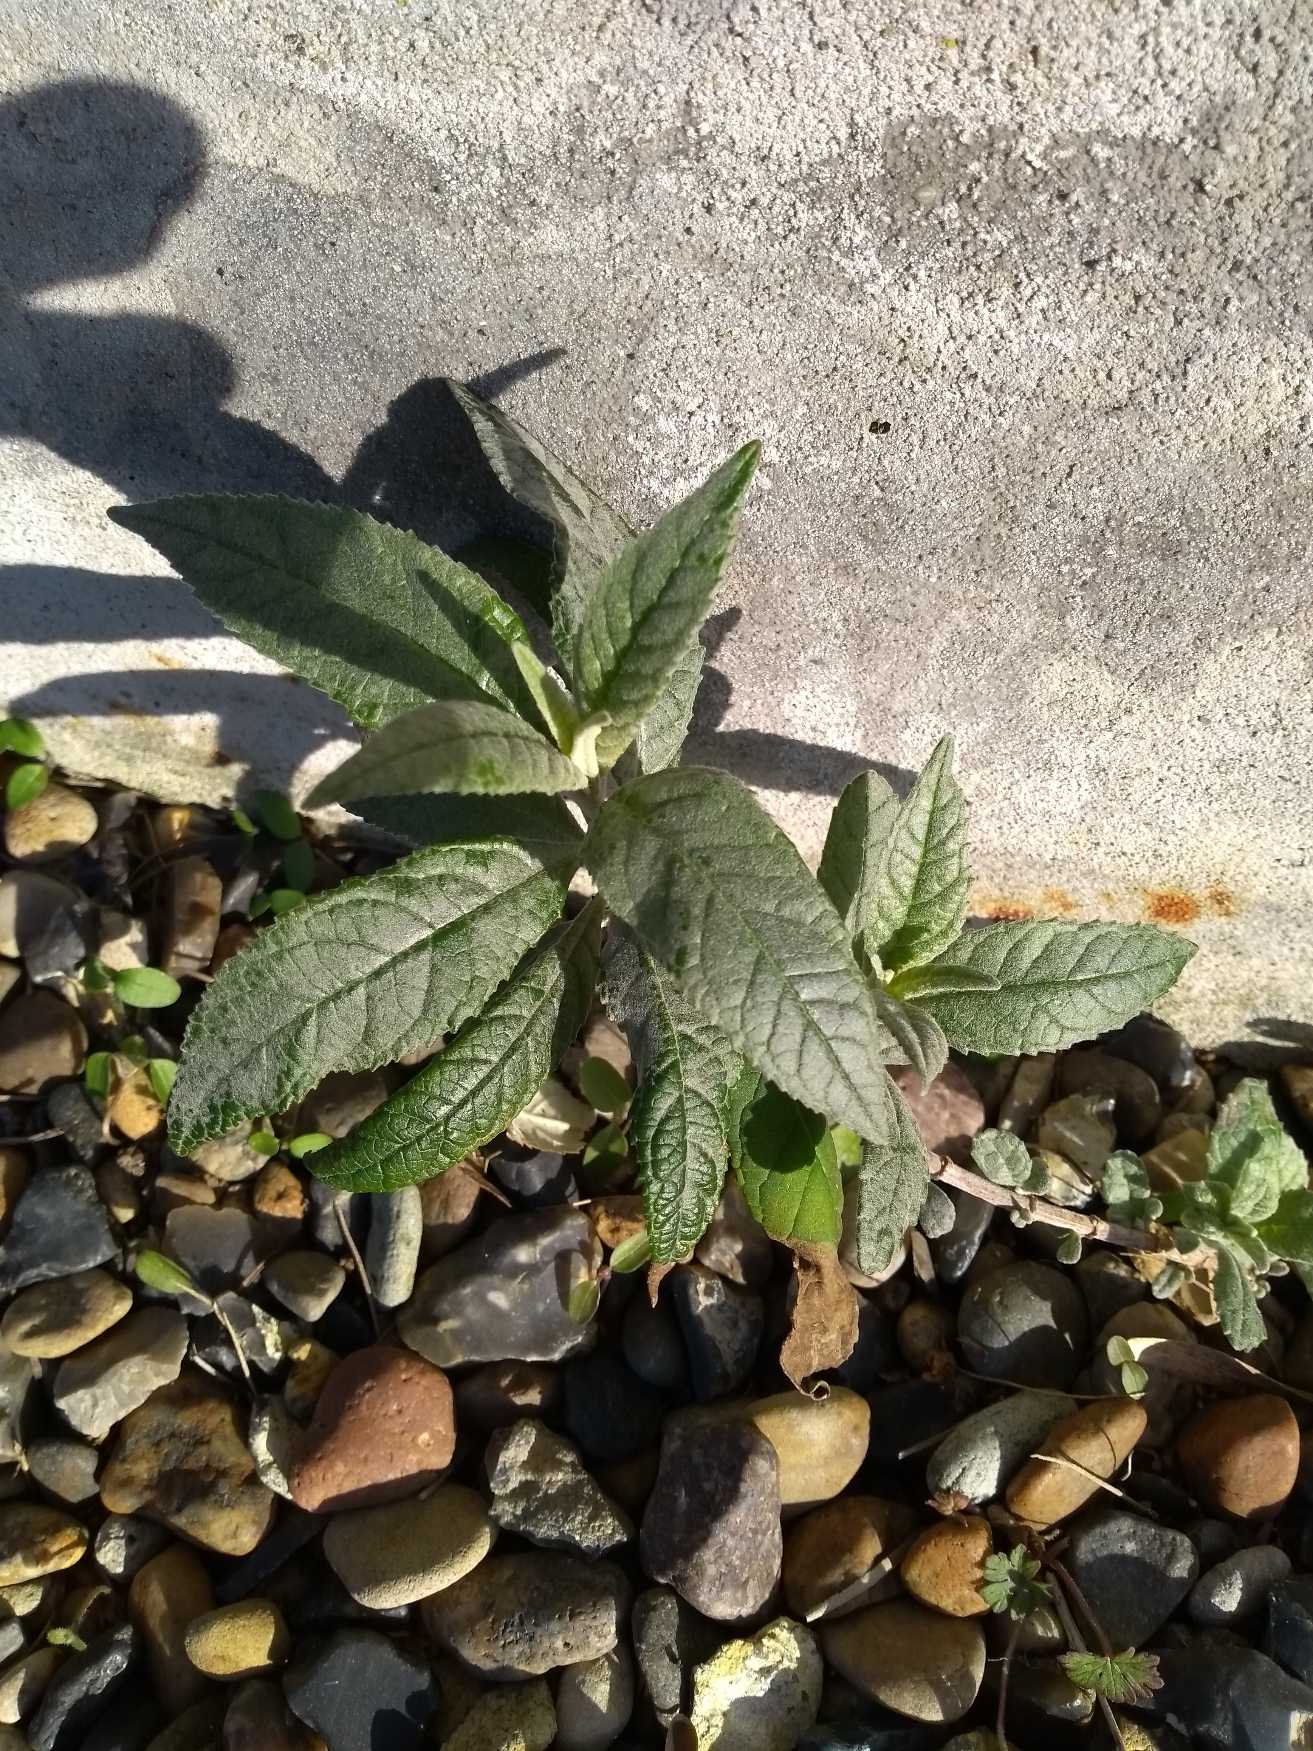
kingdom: Plantae
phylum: Tracheophyta
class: Magnoliopsida
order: Lamiales
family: Scrophulariaceae
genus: Buddleja
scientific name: Buddleja davidii
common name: Sommerfuglebusk
